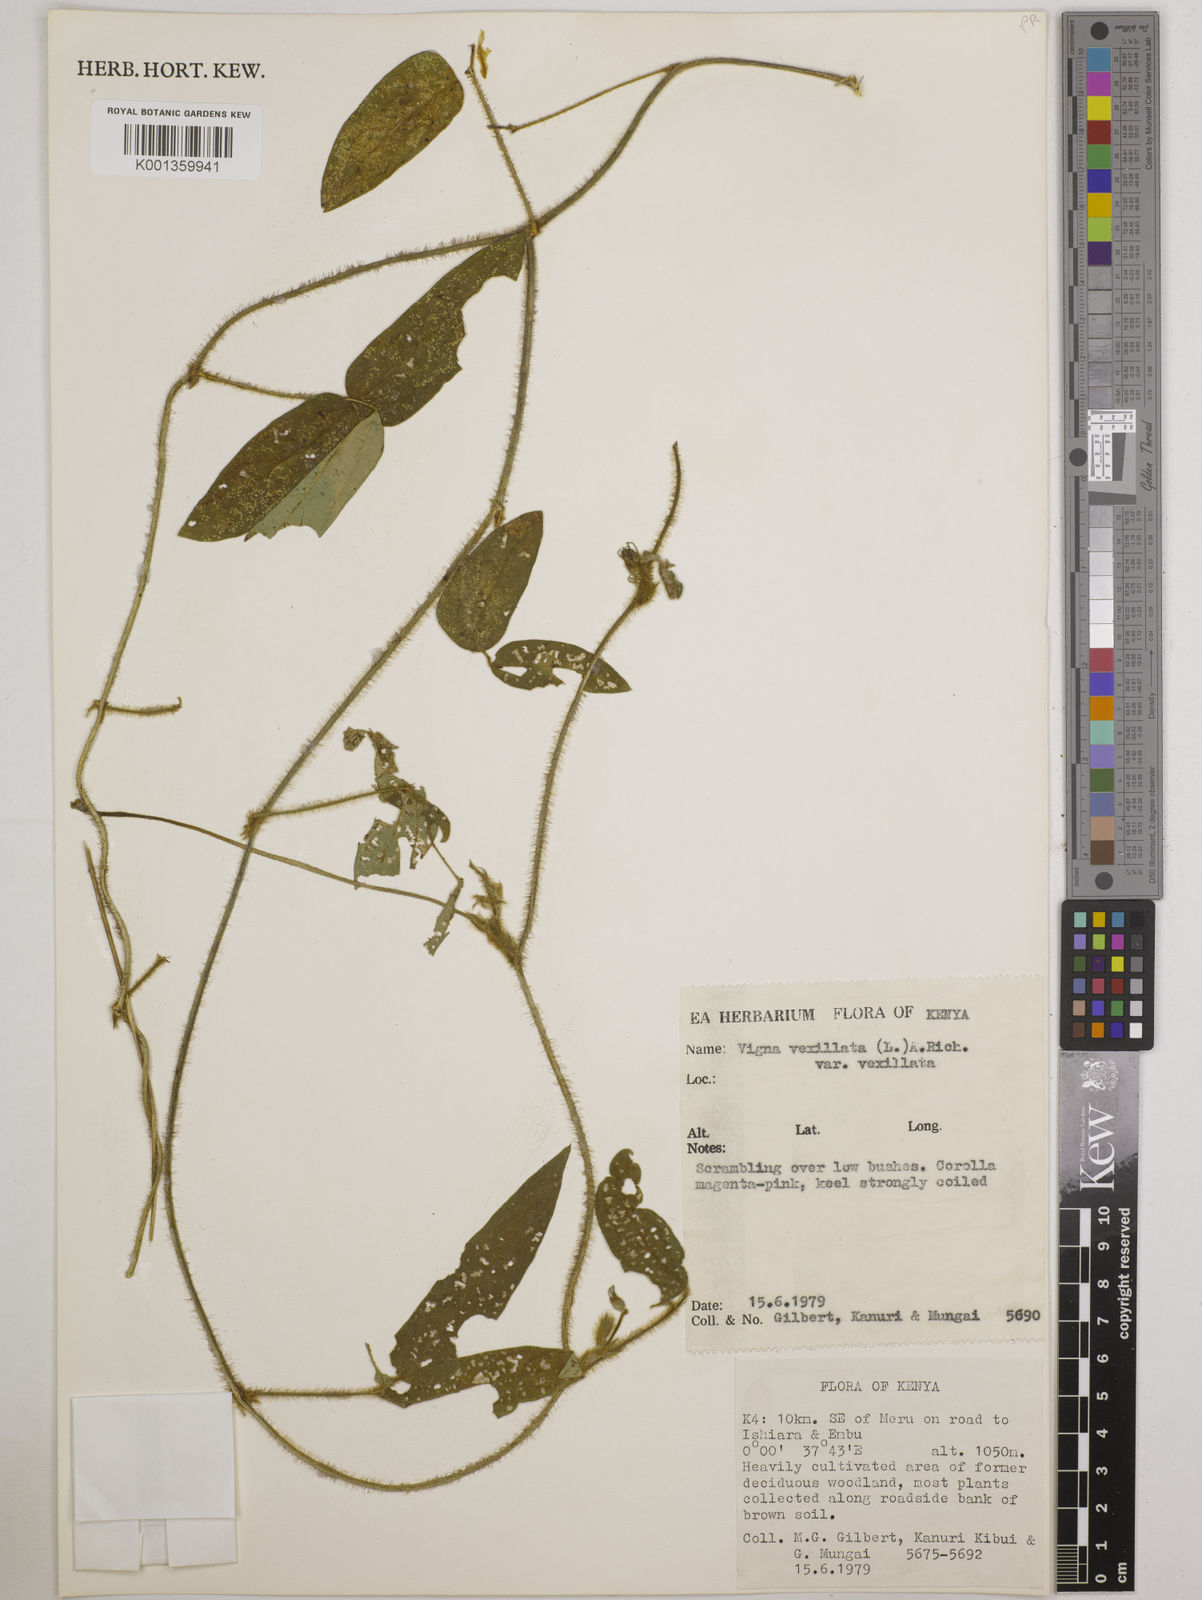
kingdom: Plantae
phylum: Tracheophyta
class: Magnoliopsida
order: Fabales
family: Fabaceae
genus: Vigna
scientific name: Vigna vexillata
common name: Zombi pea
